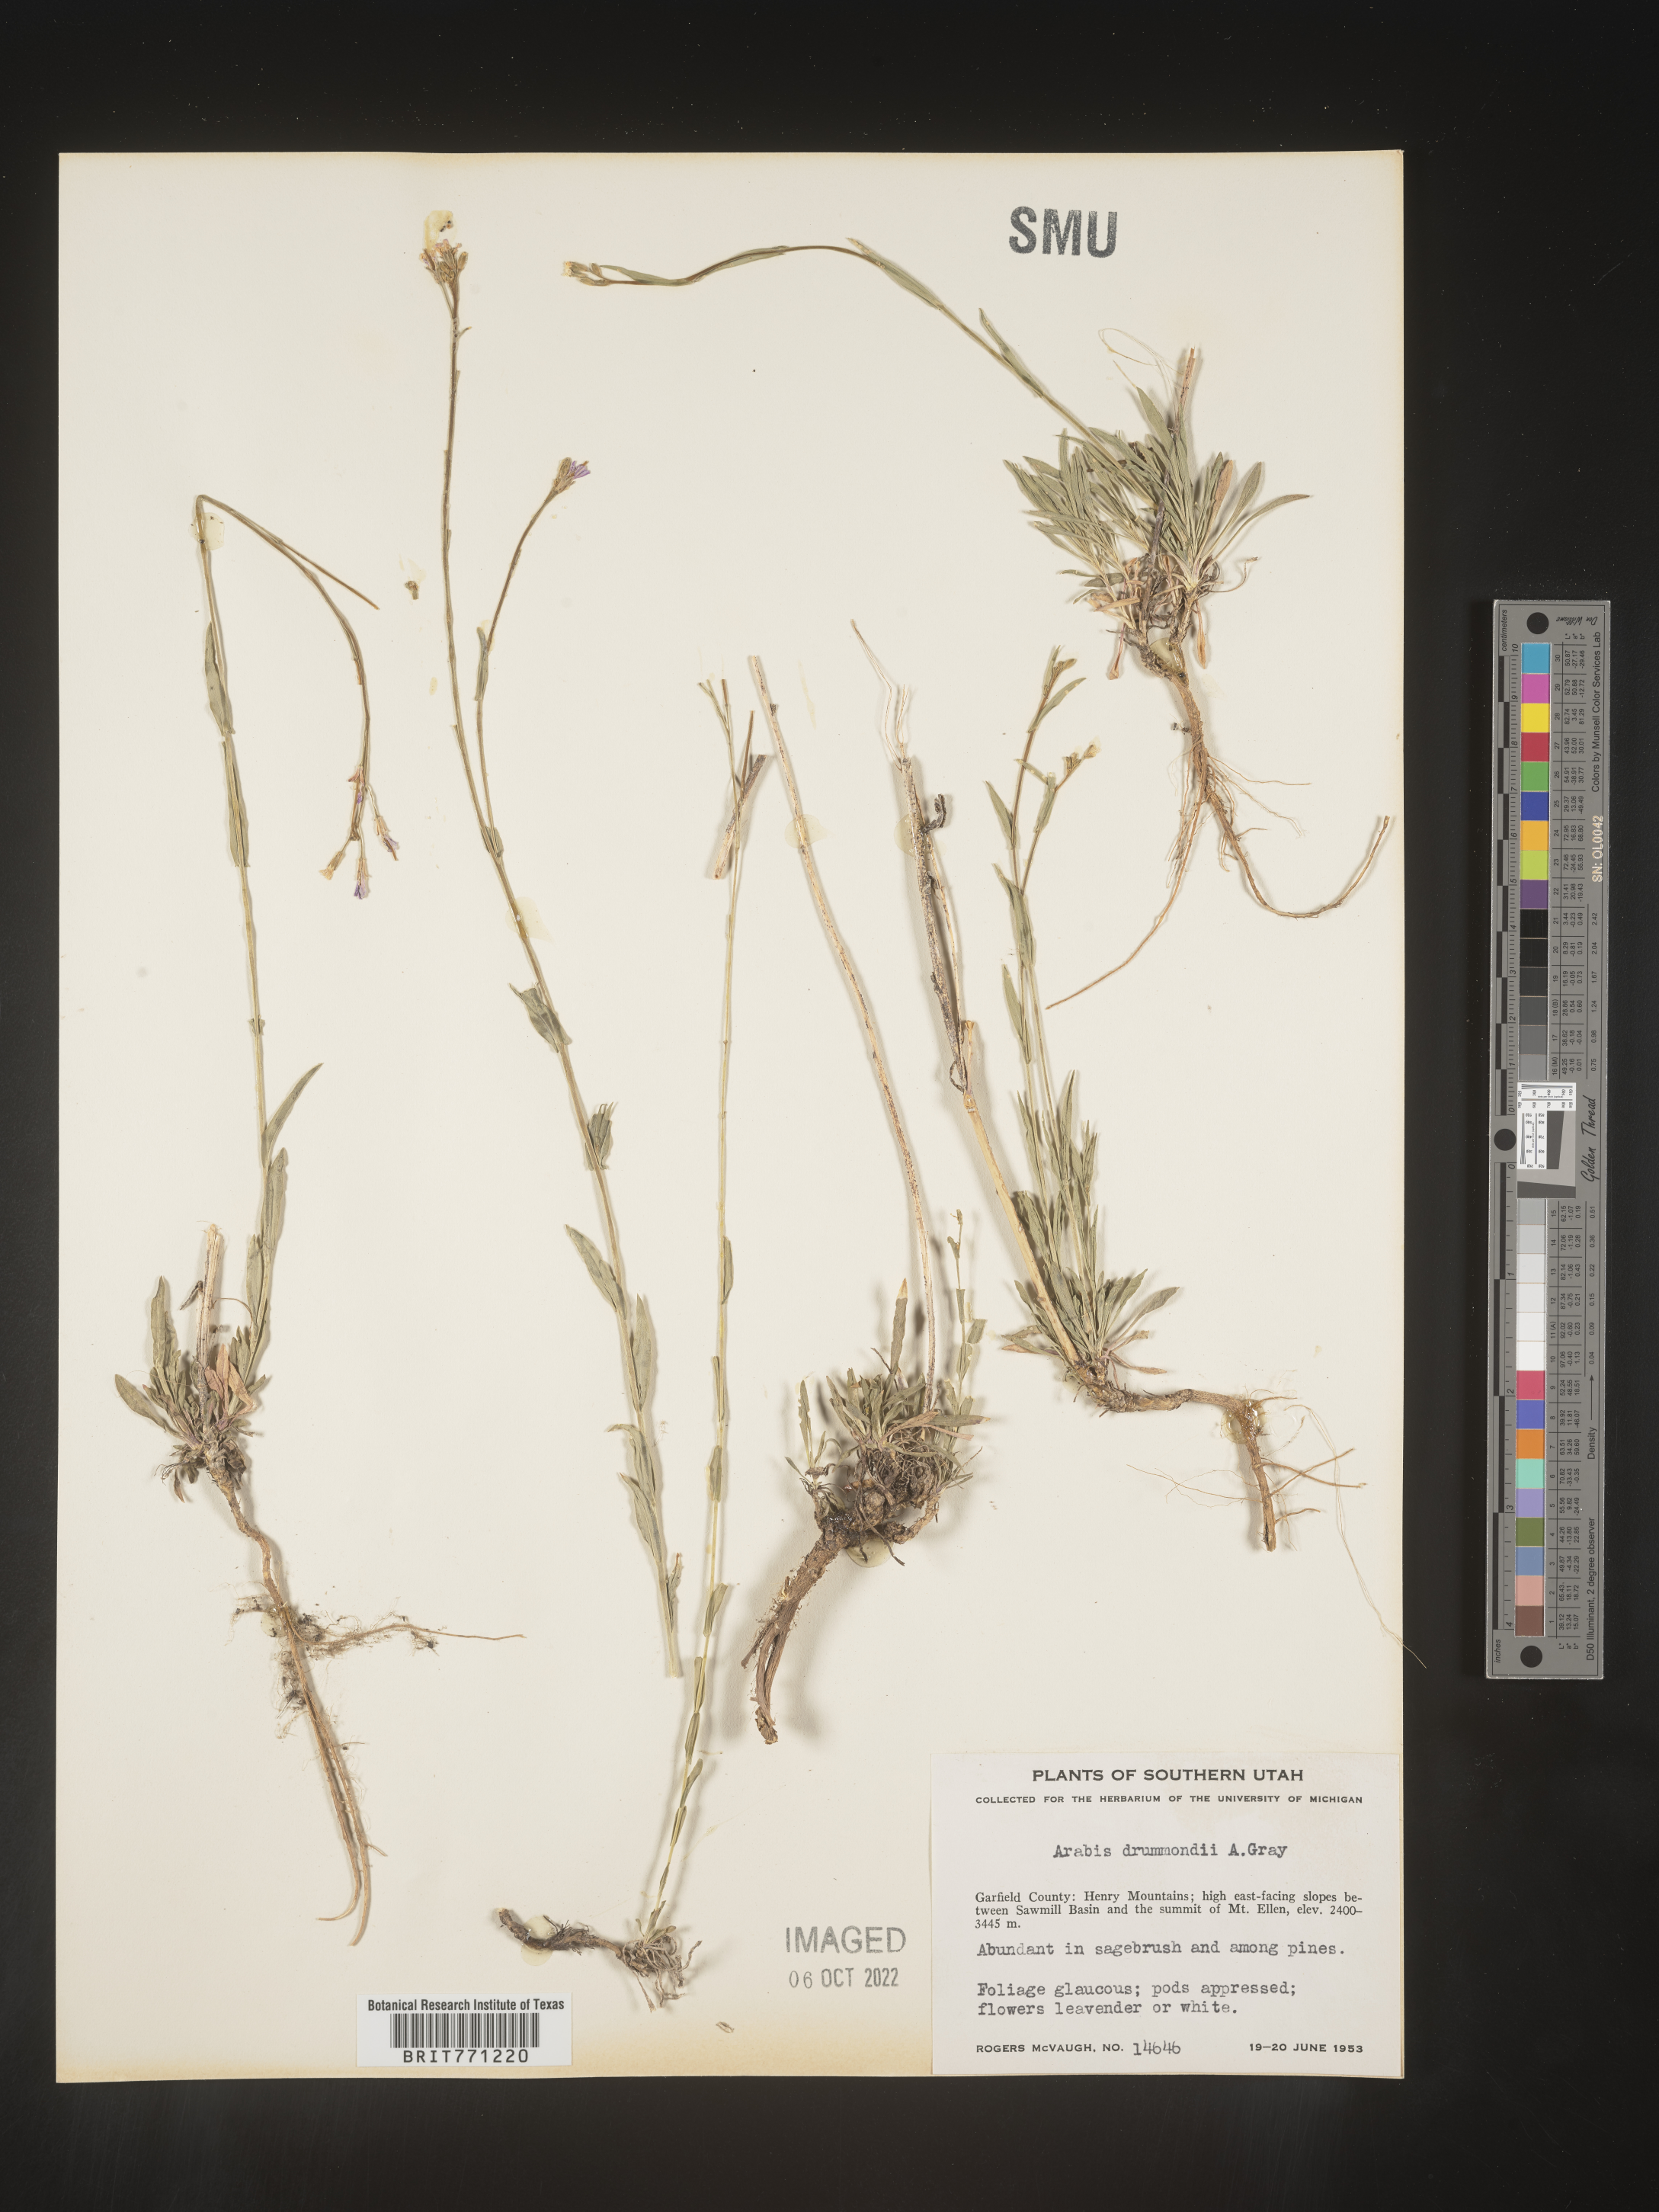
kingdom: Plantae
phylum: Tracheophyta
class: Magnoliopsida
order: Brassicales
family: Brassicaceae
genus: Boechera
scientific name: Boechera stricta
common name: Canadian rockcress
